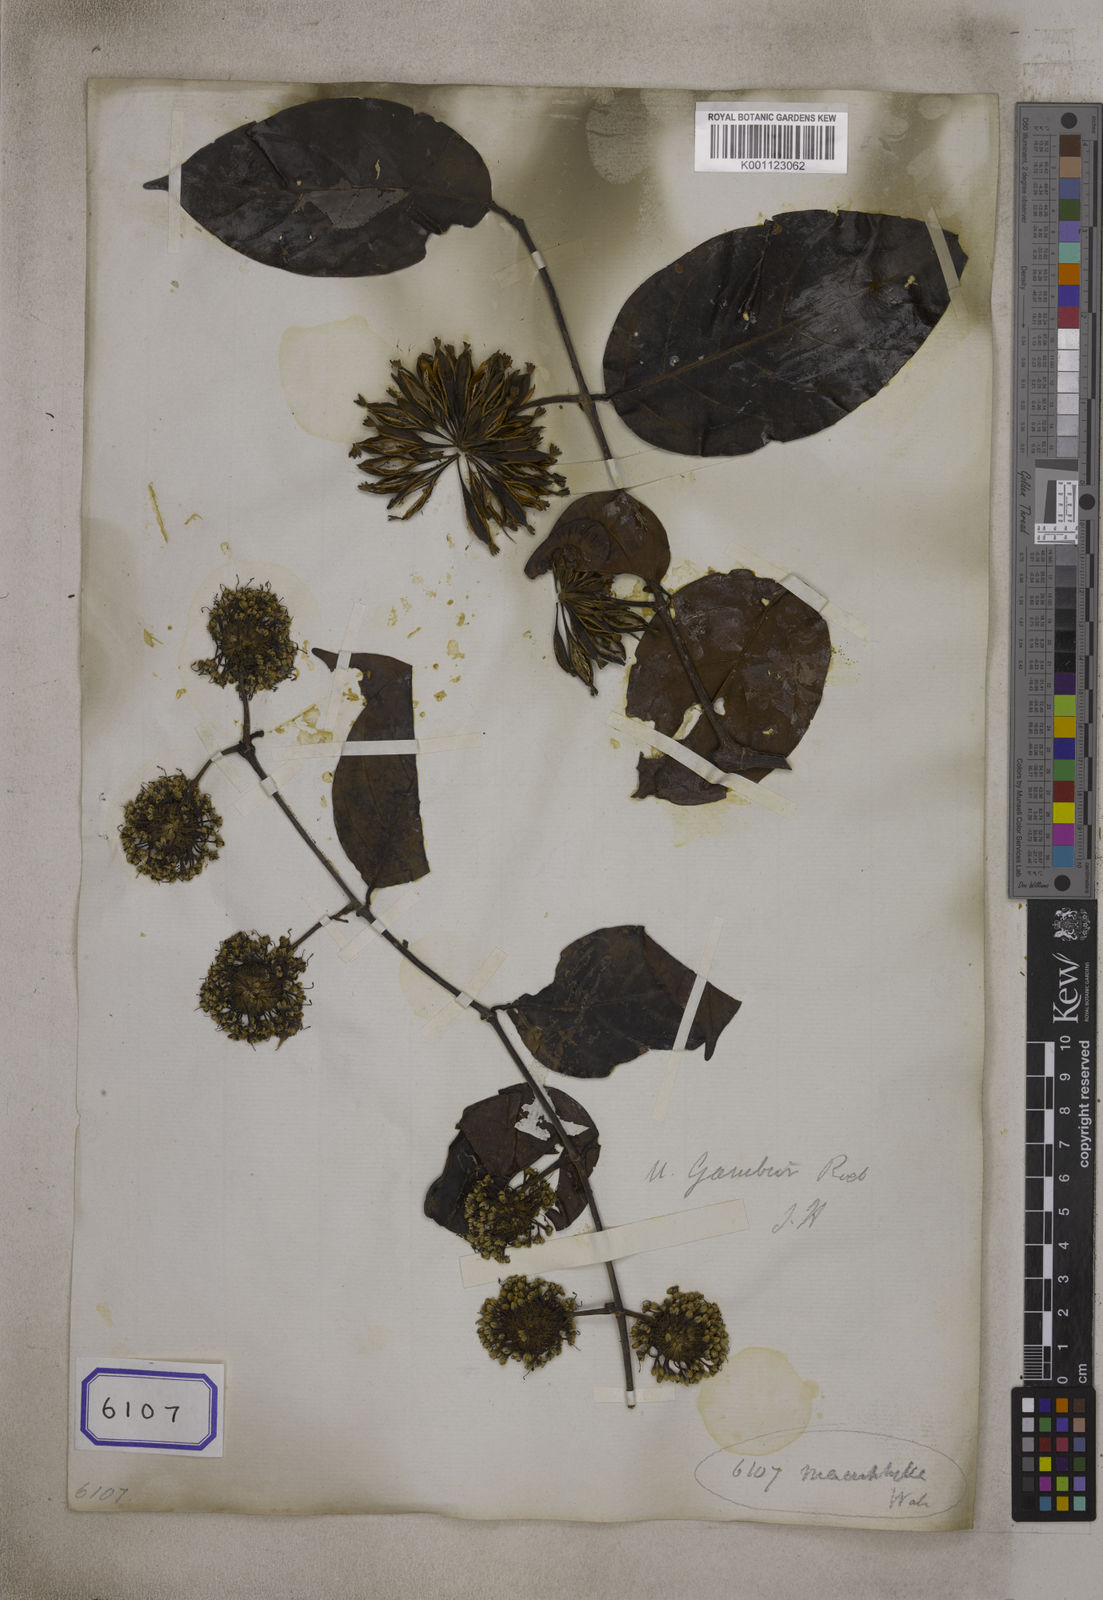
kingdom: Plantae
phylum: Tracheophyta
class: Magnoliopsida
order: Gentianales
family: Rubiaceae
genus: Uncaria
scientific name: Uncaria
